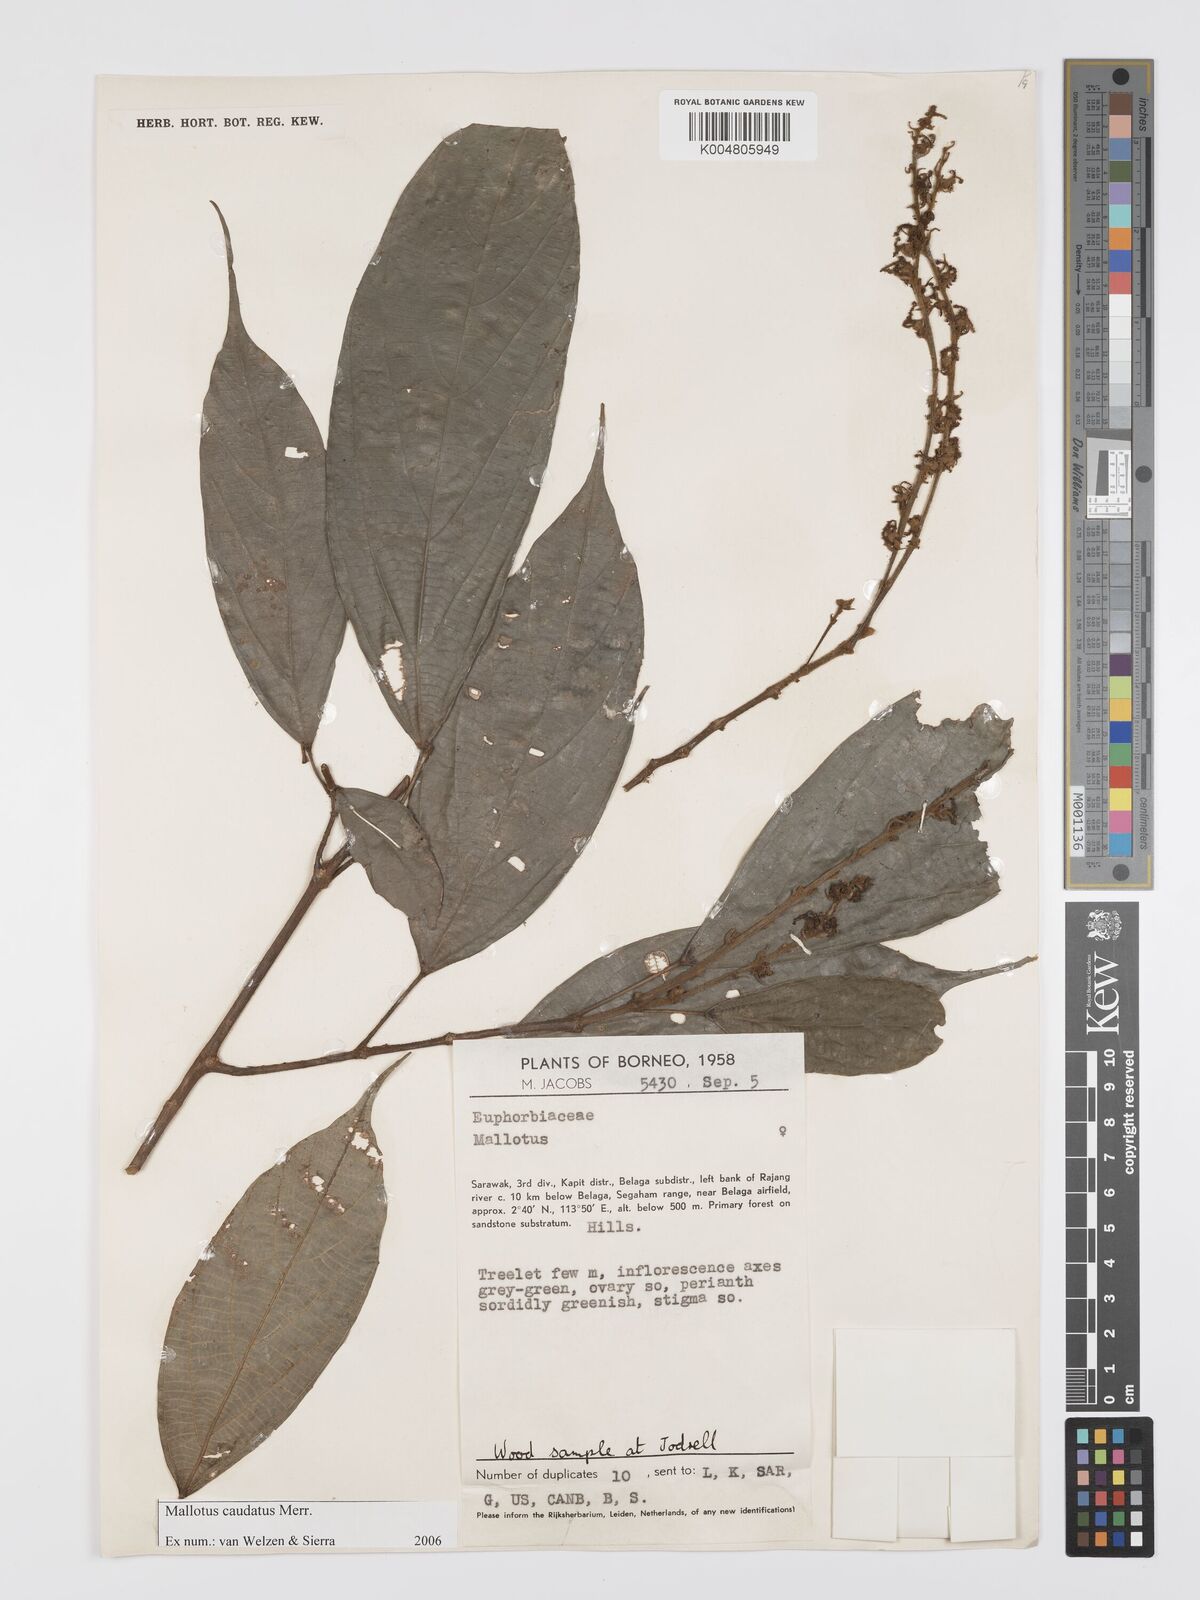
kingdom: Plantae
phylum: Tracheophyta
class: Magnoliopsida
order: Malpighiales
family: Euphorbiaceae
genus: Mallotus
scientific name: Mallotus caudatus
